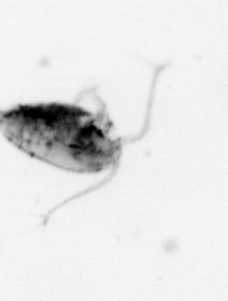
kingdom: Animalia
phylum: Arthropoda
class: Copepoda
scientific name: Copepoda
